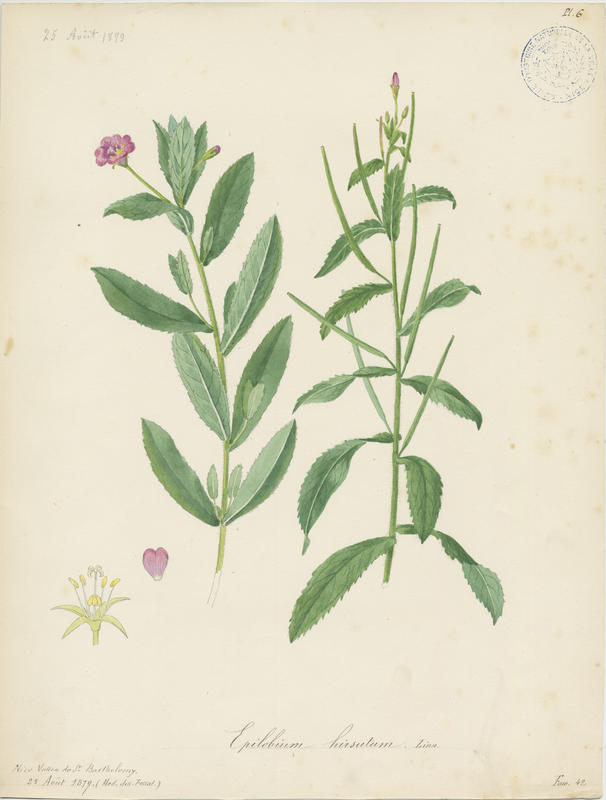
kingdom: Plantae
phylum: Tracheophyta
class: Magnoliopsida
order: Myrtales
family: Onagraceae
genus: Epilobium
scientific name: Epilobium hirsutum
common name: Great willowherb
